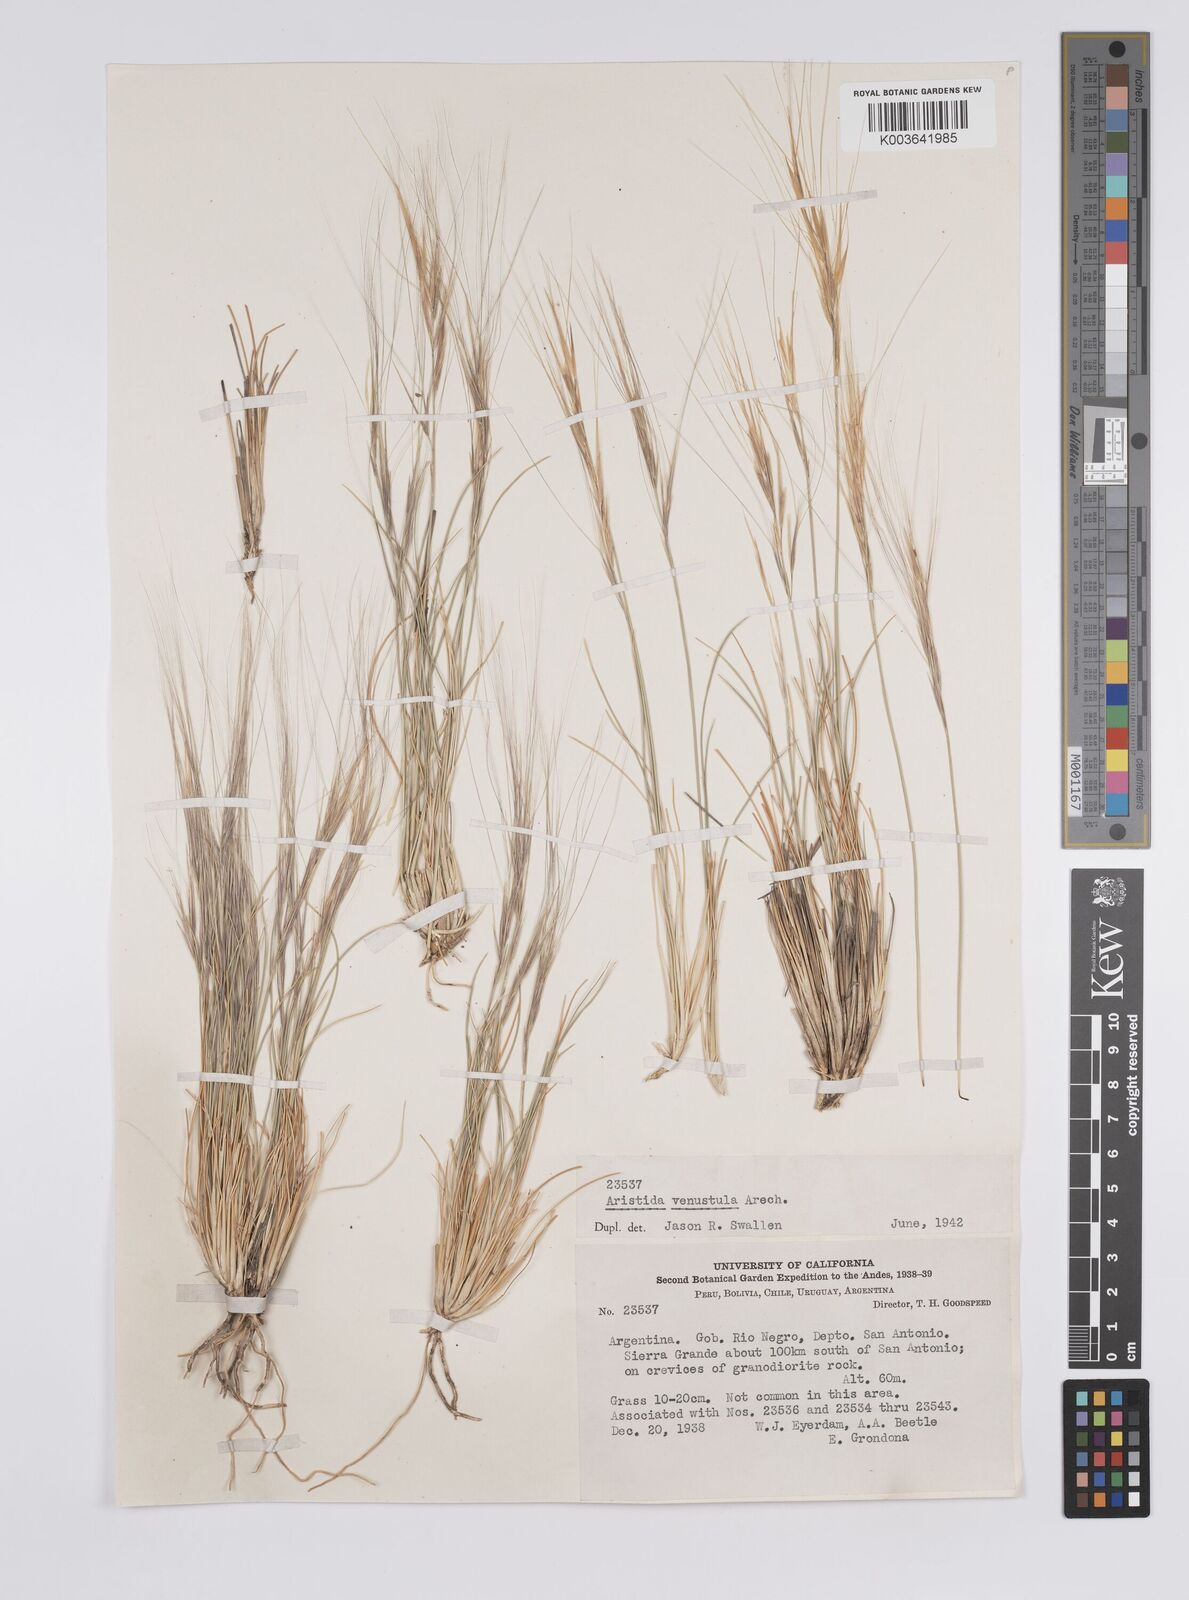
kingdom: Plantae
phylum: Tracheophyta
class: Liliopsida
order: Poales
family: Poaceae
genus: Aristida
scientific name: Aristida venustula
